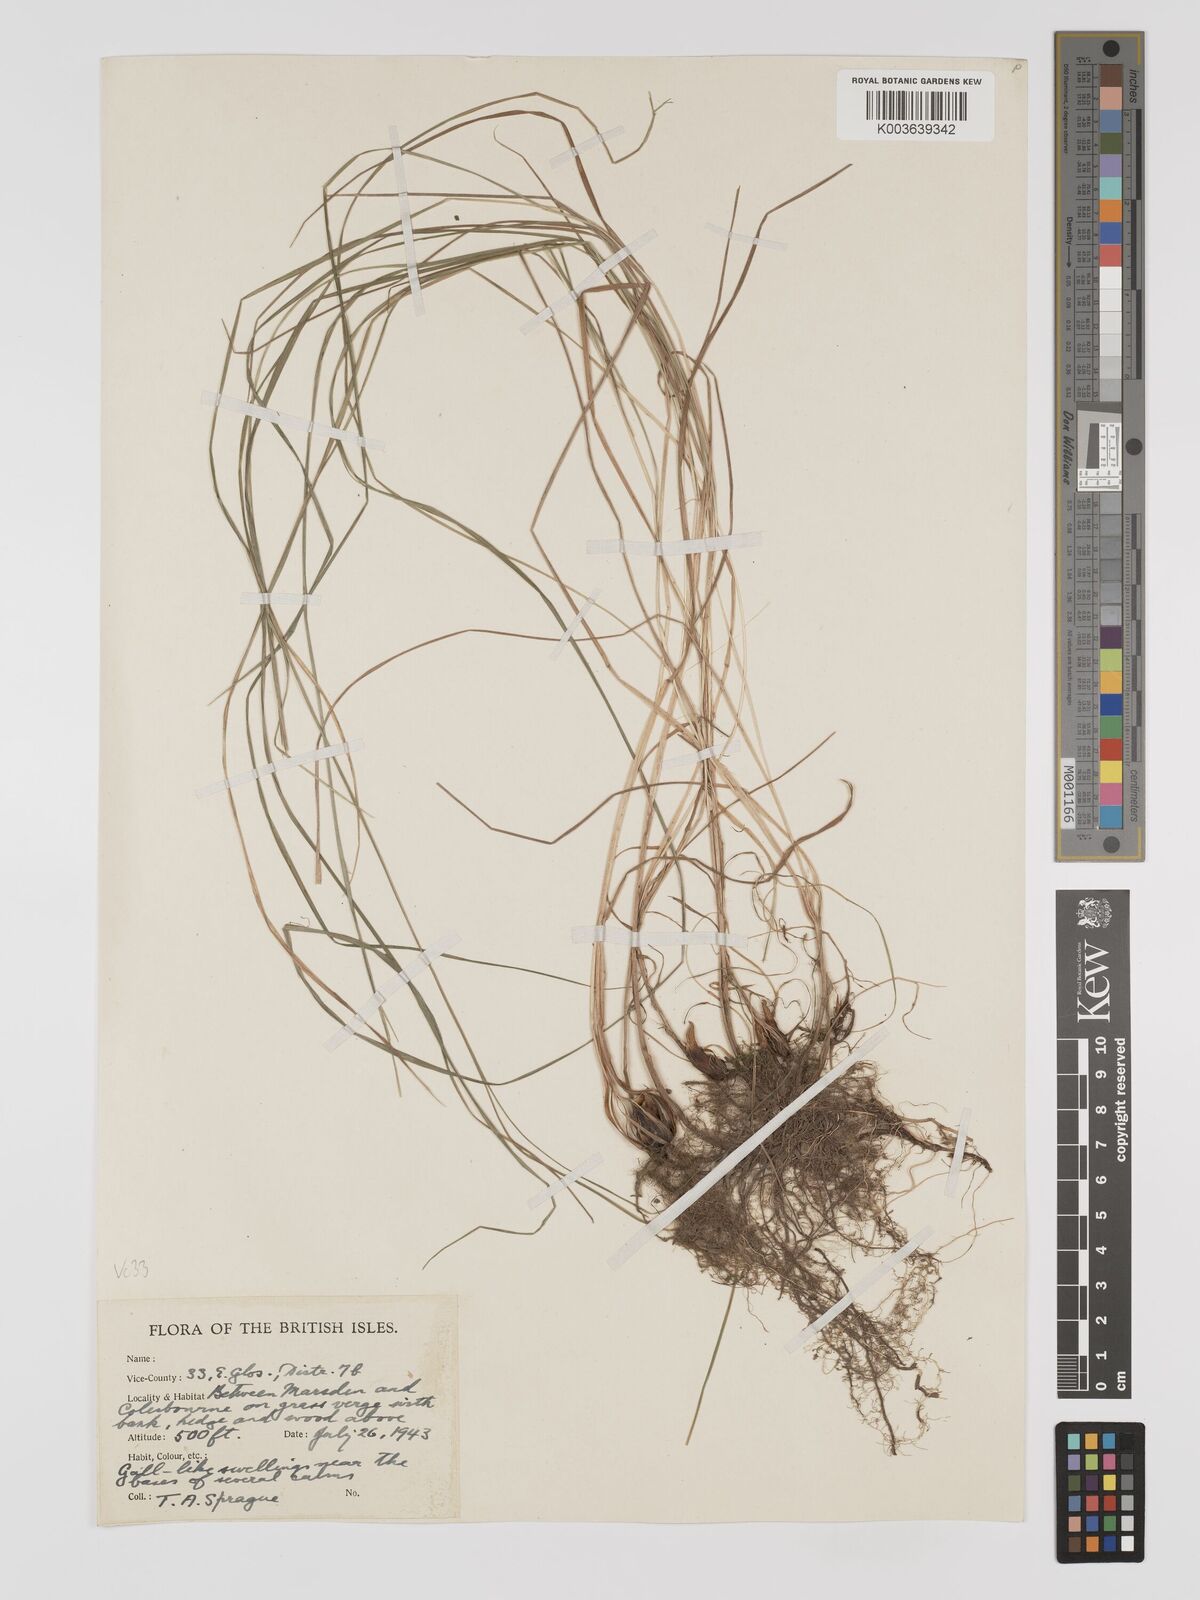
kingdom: Plantae
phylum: Tracheophyta
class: Liliopsida
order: Poales
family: Poaceae
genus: Bromus
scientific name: Bromus erectus
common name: Erect brome
